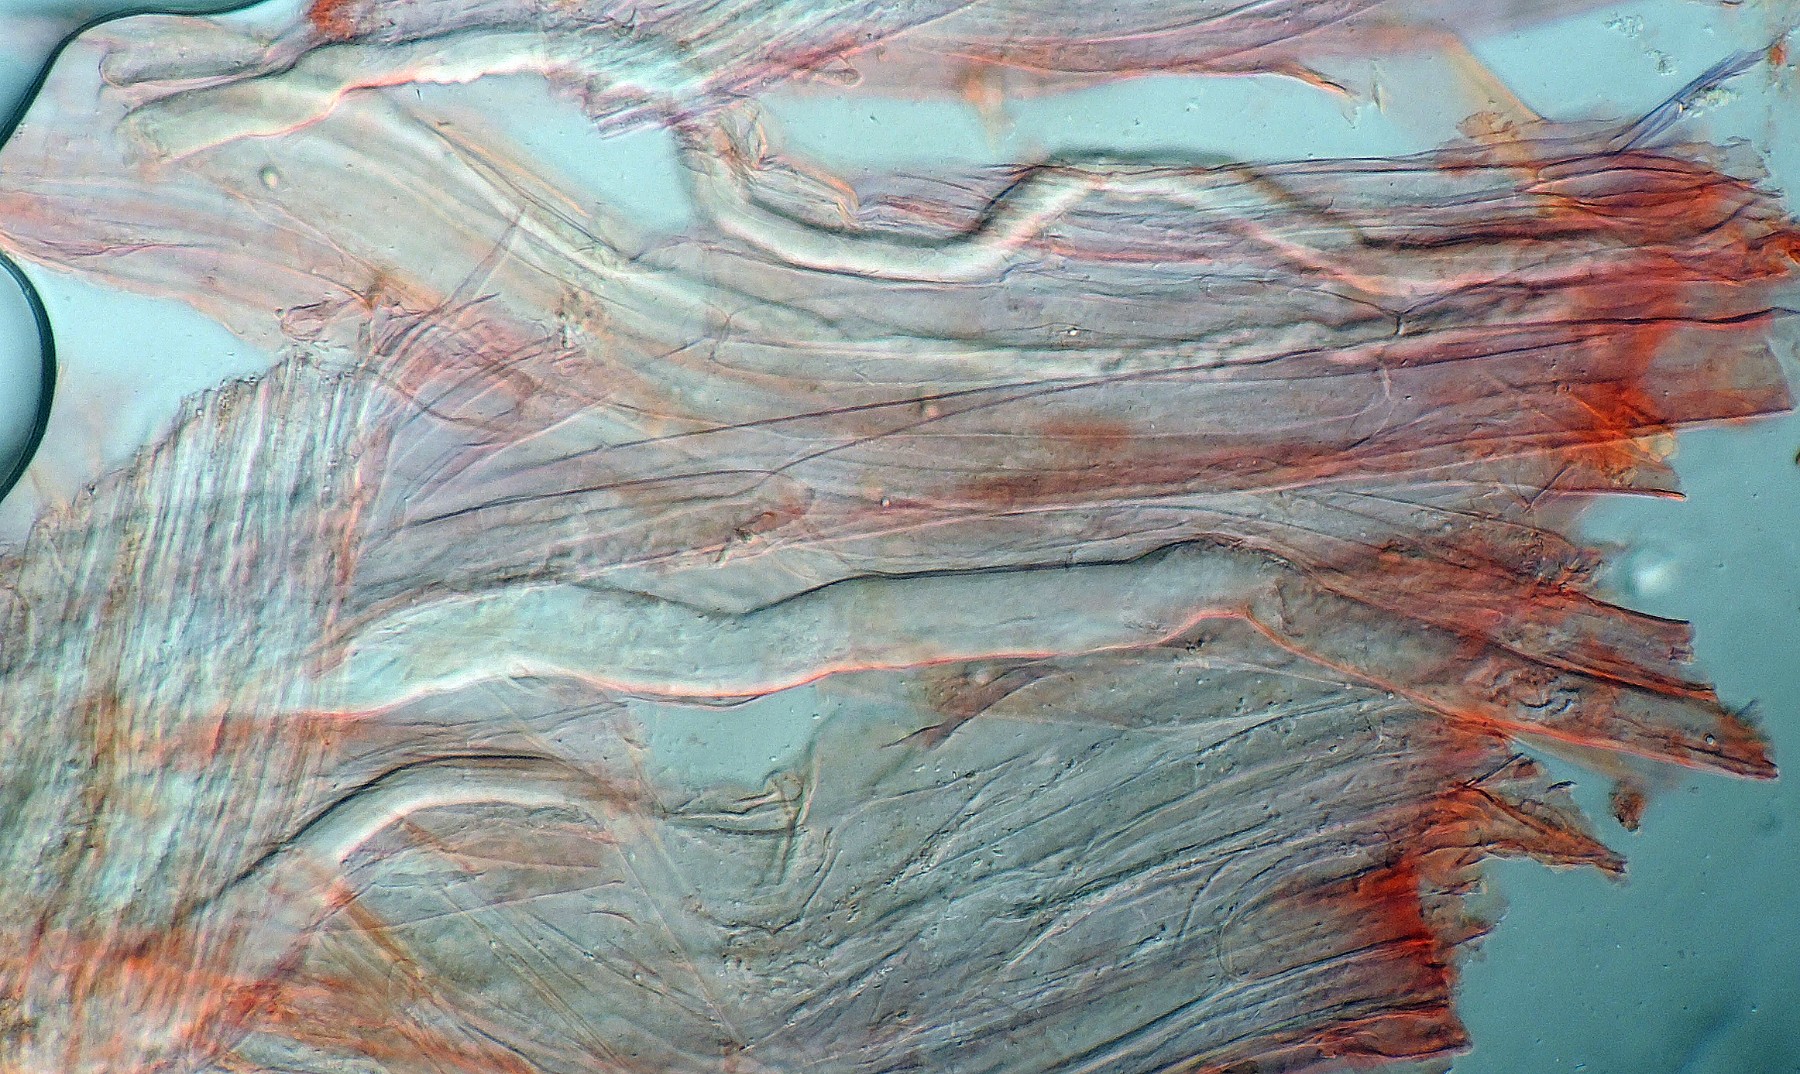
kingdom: Fungi
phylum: Basidiomycota
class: Agaricomycetes
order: Agaricales
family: Mycenaceae
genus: Mycena
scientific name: Mycena abramsii
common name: sommer-huesvamp
